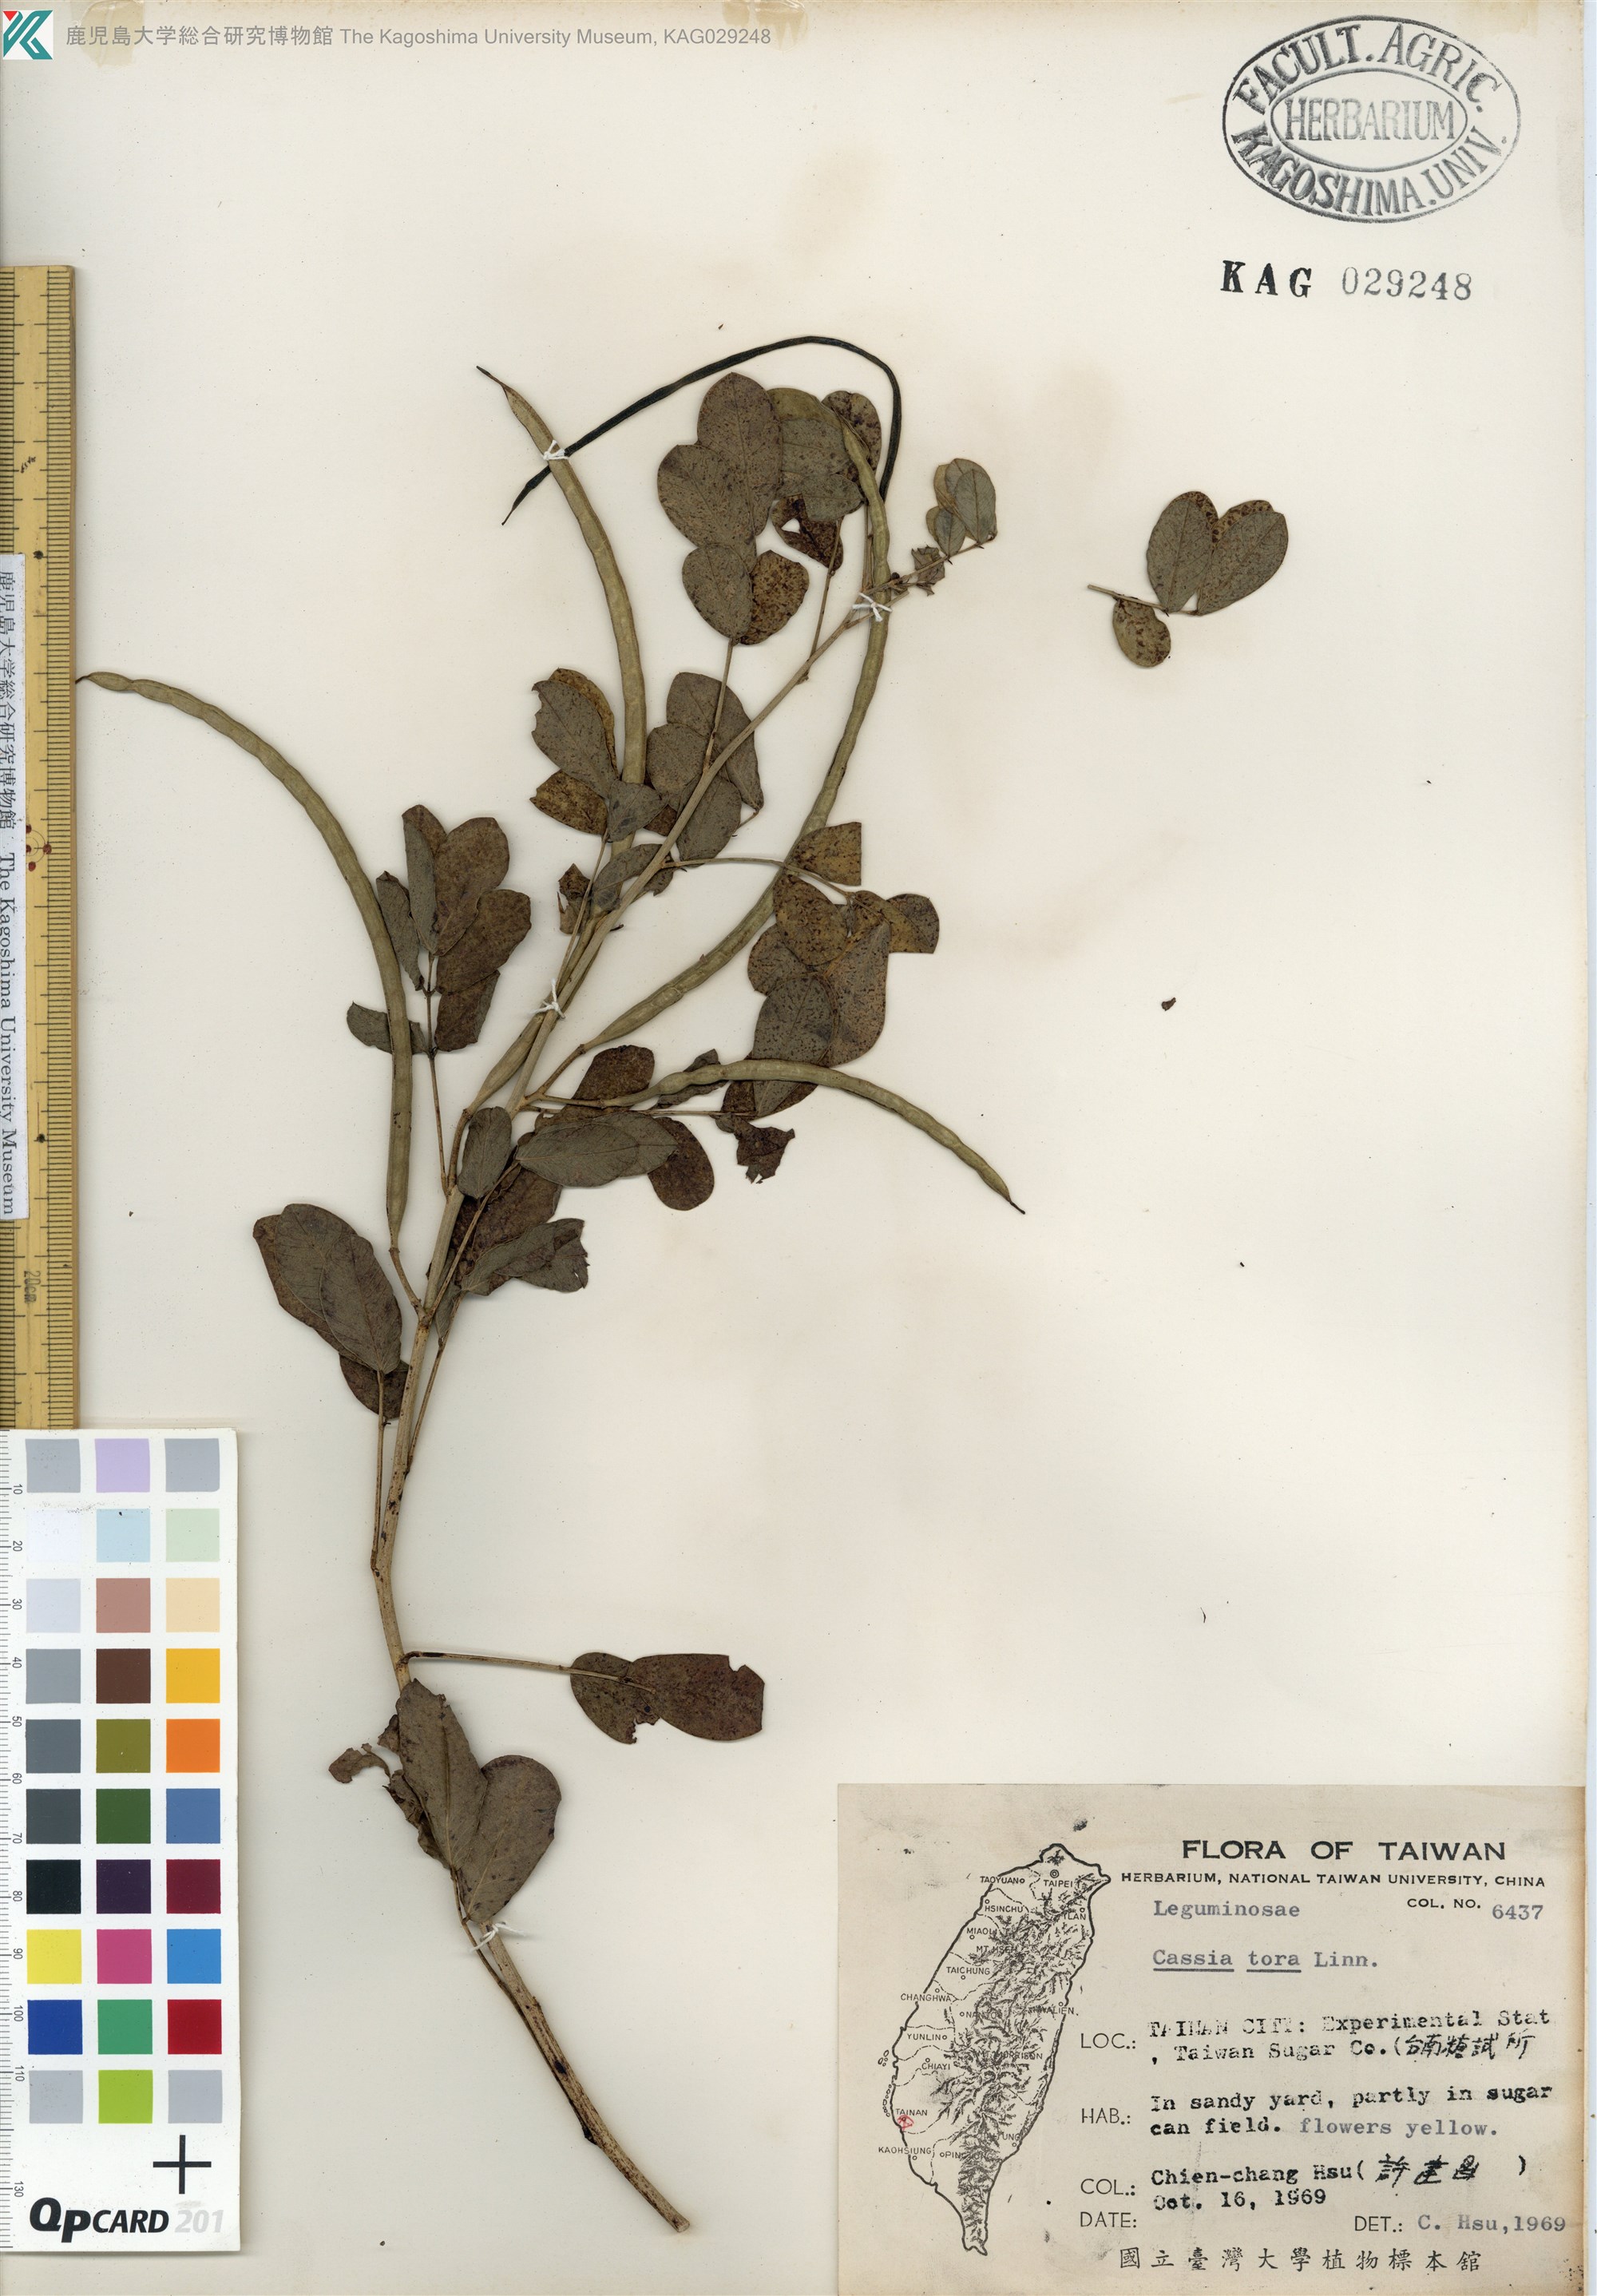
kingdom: Plantae
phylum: Tracheophyta
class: Magnoliopsida
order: Fabales
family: Fabaceae
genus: Senna
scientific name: Senna tora
